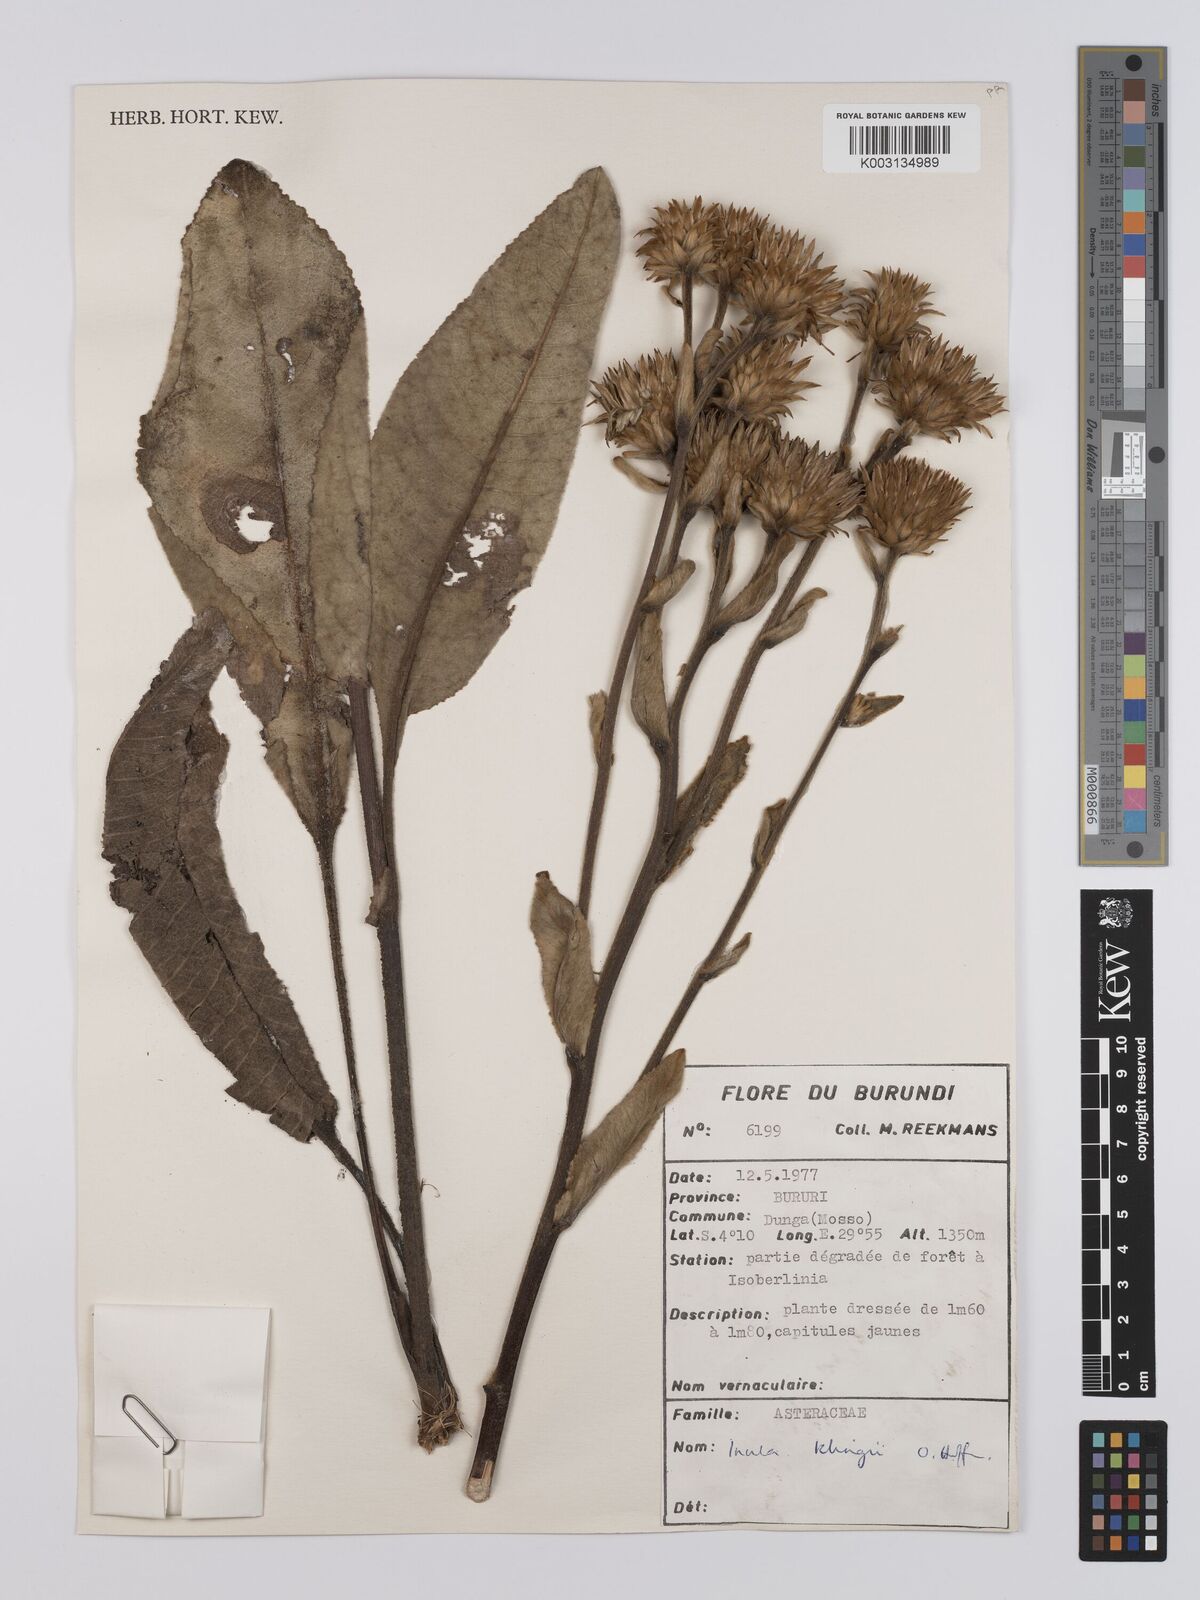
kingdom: Plantae
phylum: Tracheophyta
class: Magnoliopsida
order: Asterales
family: Asteraceae
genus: Inula
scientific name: Inula klingii
